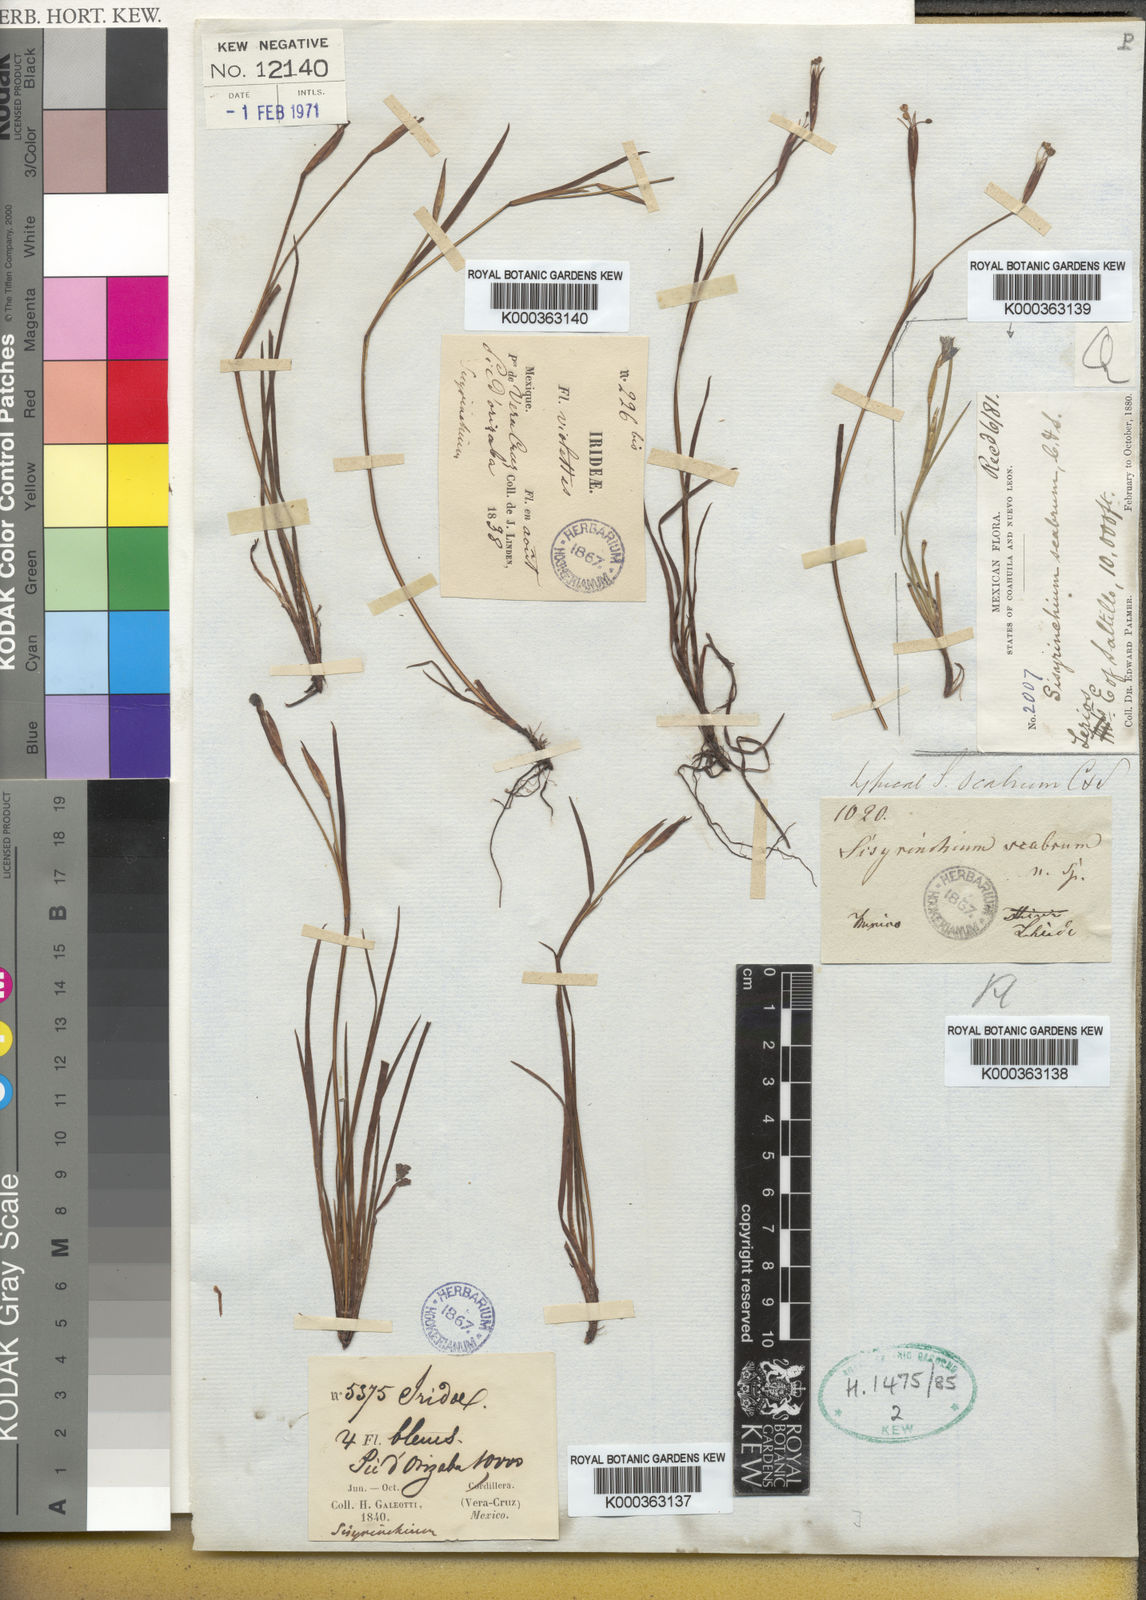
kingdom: Plantae
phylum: Tracheophyta
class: Liliopsida
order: Asparagales
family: Iridaceae
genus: Sisyrinchium
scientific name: Sisyrinchium scabrum
